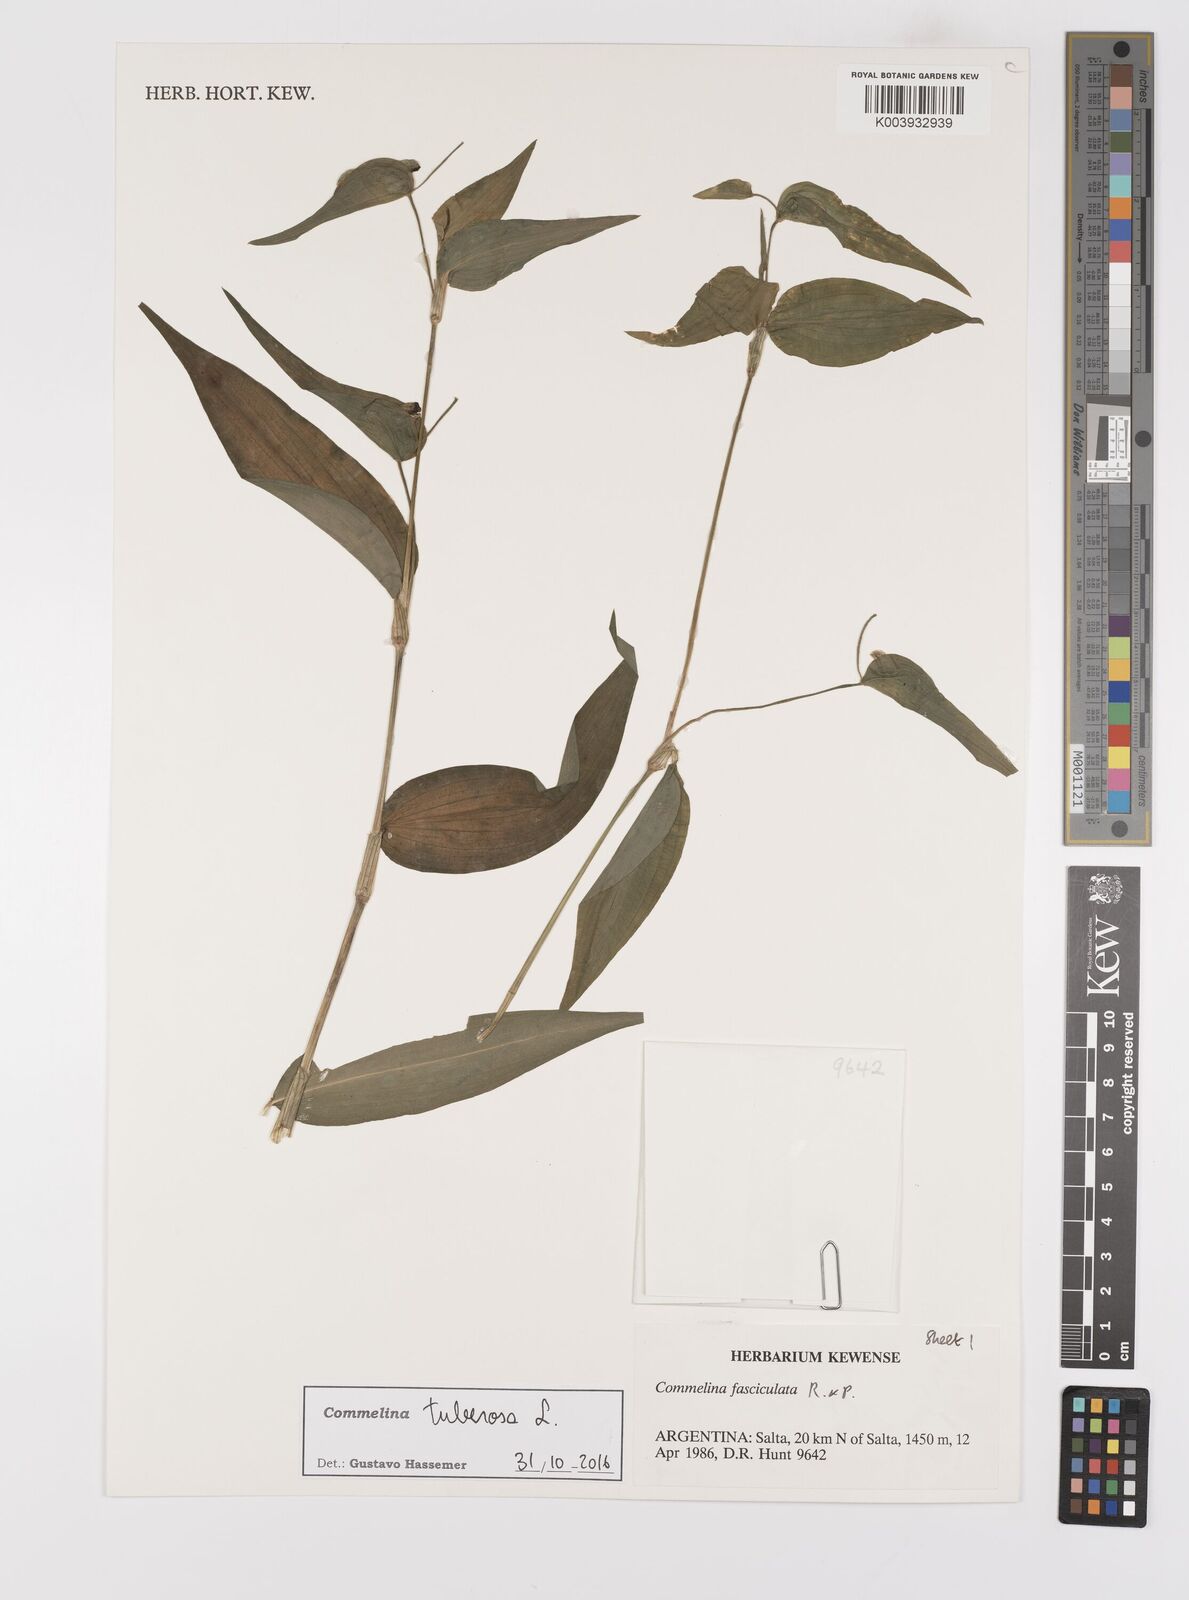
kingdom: Plantae
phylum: Tracheophyta
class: Liliopsida
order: Commelinales
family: Commelinaceae
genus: Commelina
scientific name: Commelina tuberosa
